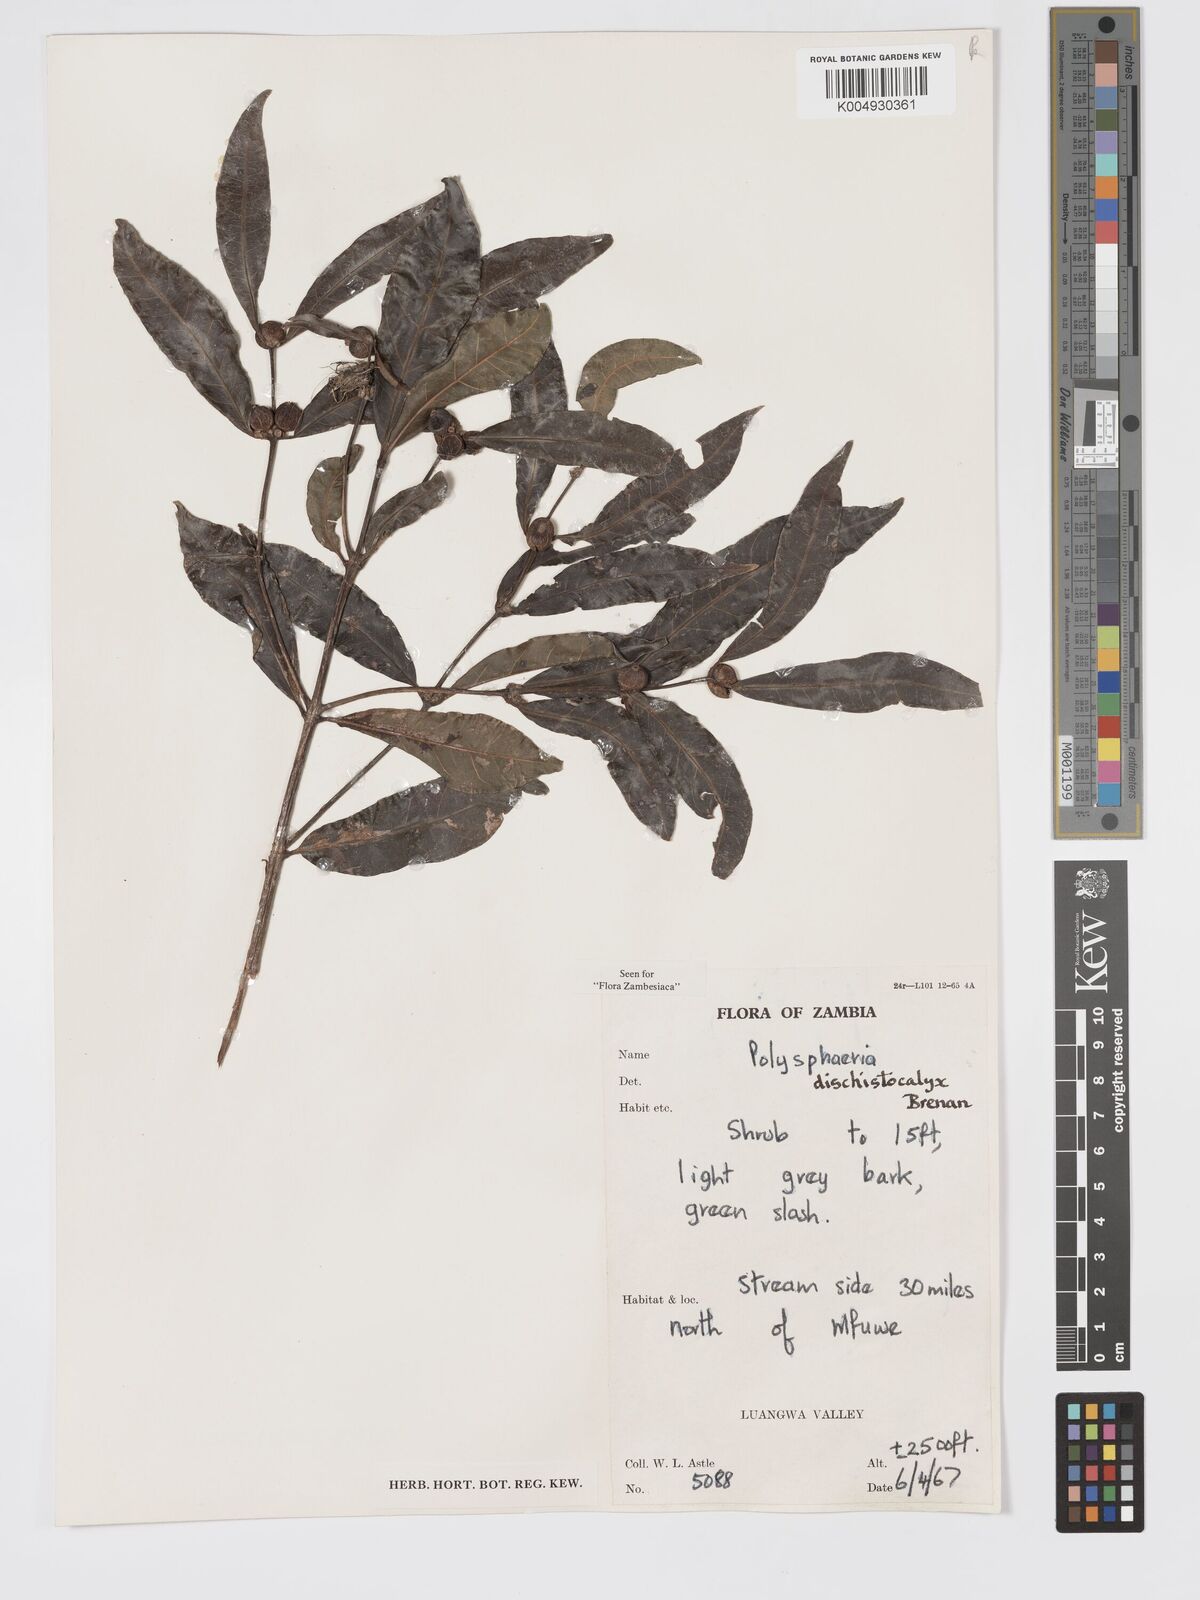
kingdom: Plantae
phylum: Tracheophyta
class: Magnoliopsida
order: Gentianales
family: Rubiaceae
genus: Polysphaeria
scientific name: Polysphaeria dischistocalyx
